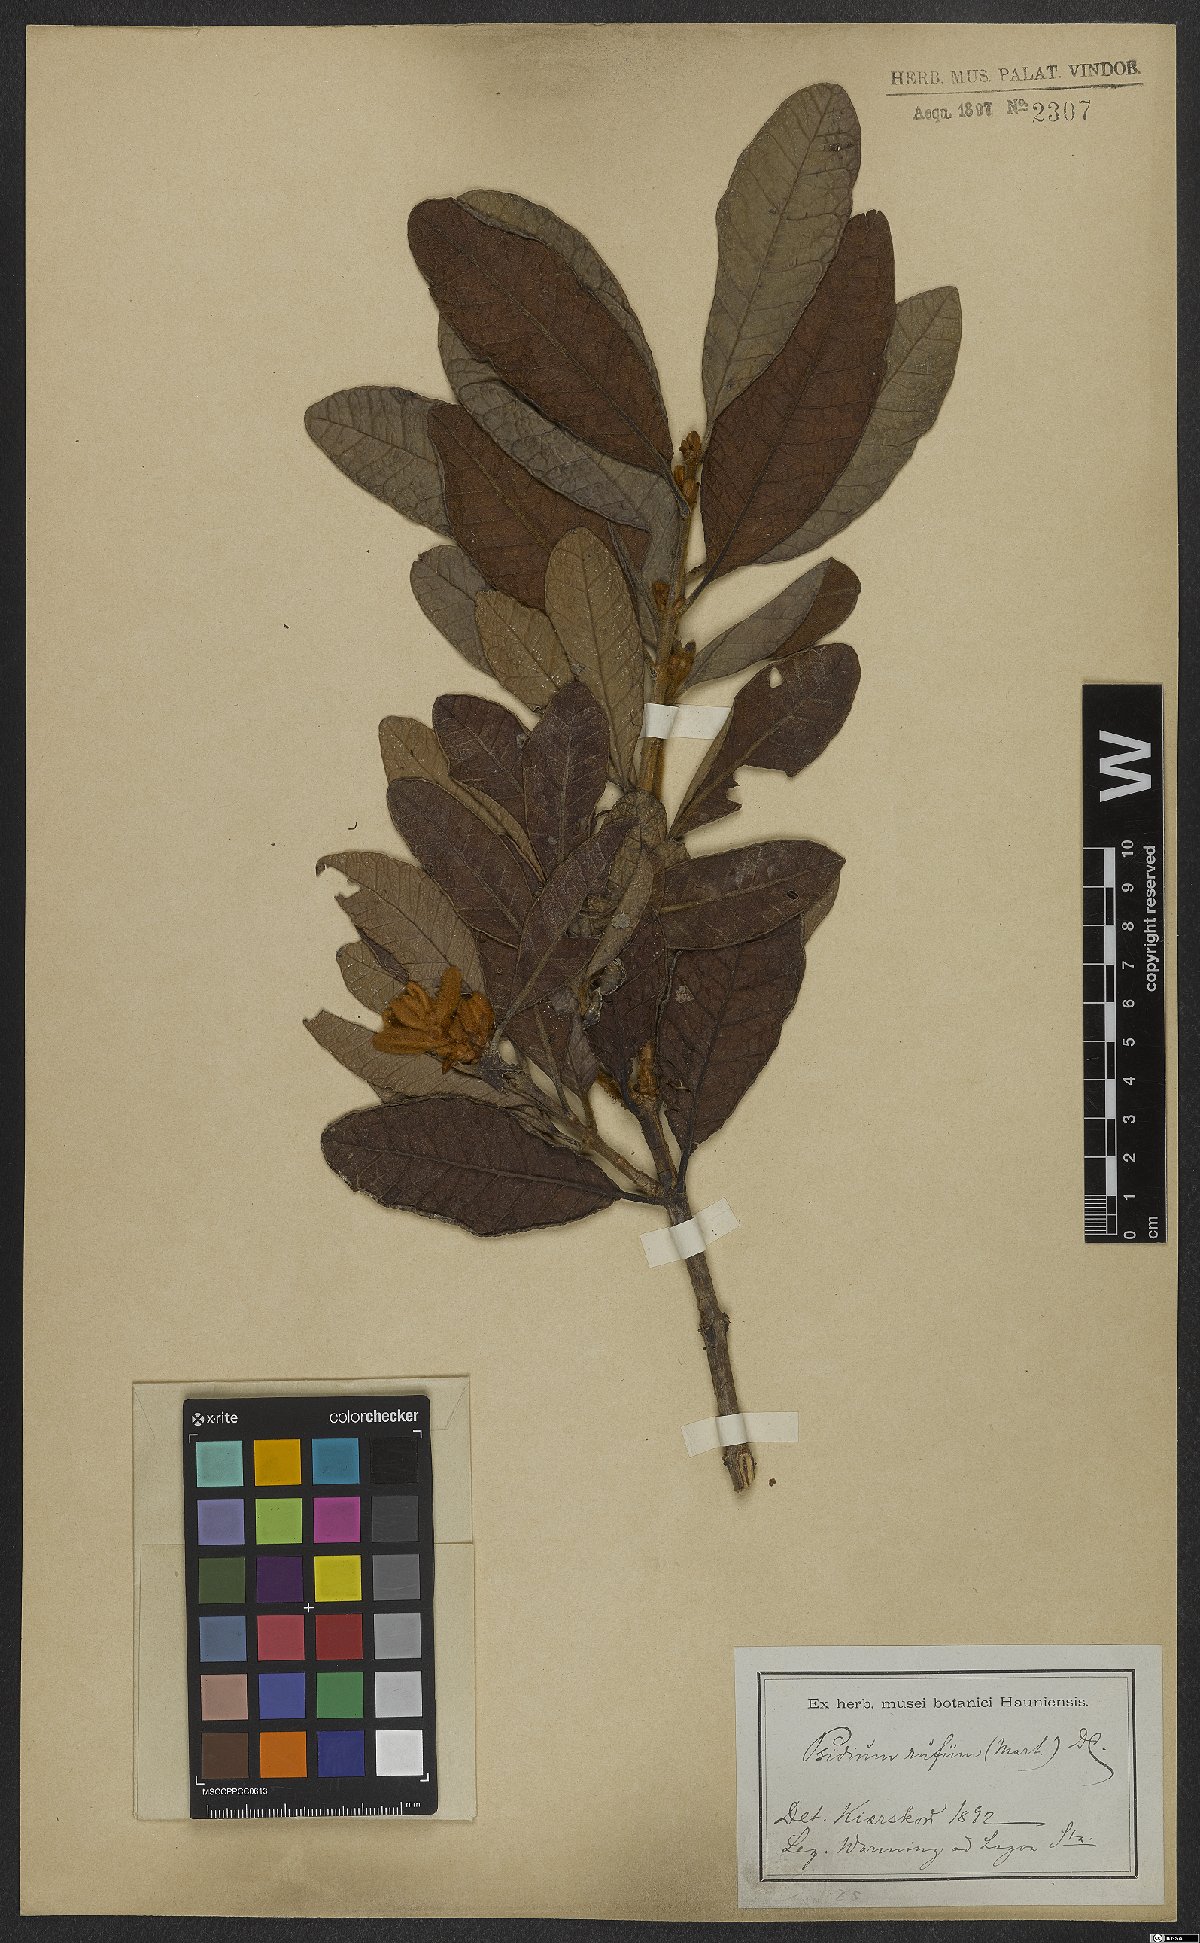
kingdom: Plantae
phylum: Tracheophyta
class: Magnoliopsida
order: Myrtales
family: Myrtaceae
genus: Psidium
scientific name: Psidium rufum
